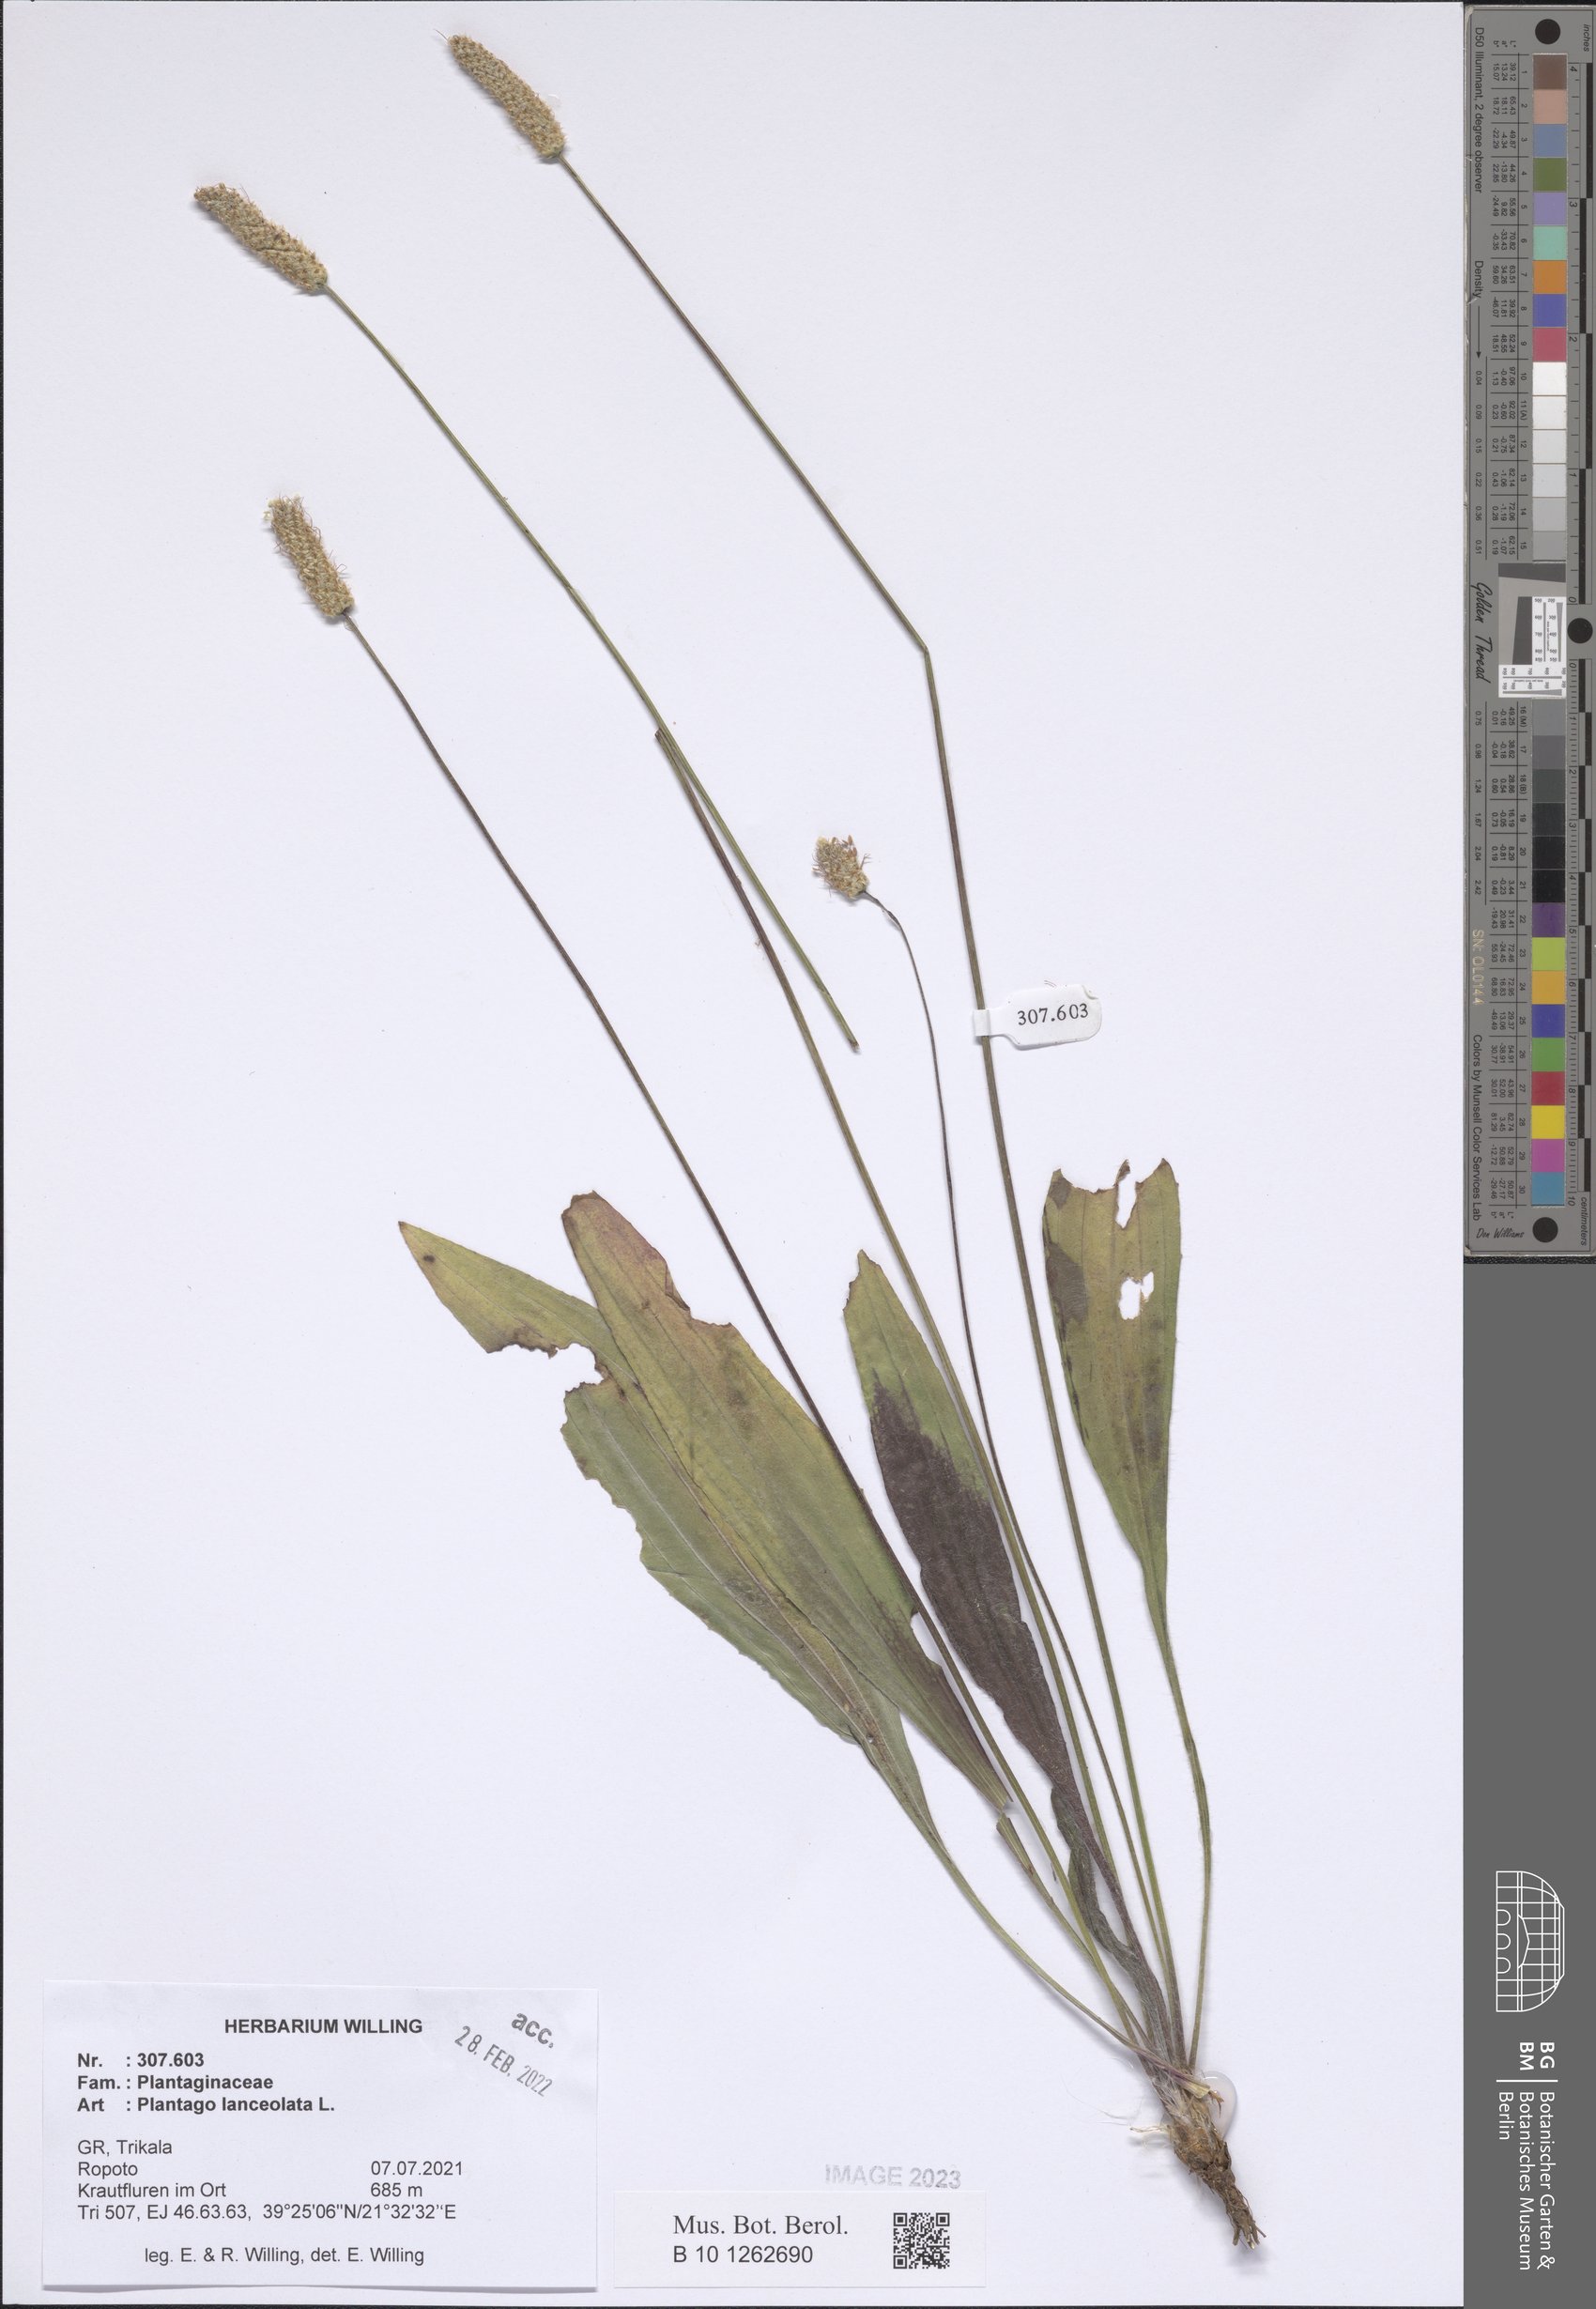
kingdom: Plantae
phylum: Tracheophyta
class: Magnoliopsida
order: Lamiales
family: Plantaginaceae
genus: Plantago
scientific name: Plantago lanceolata
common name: Ribwort plantain
